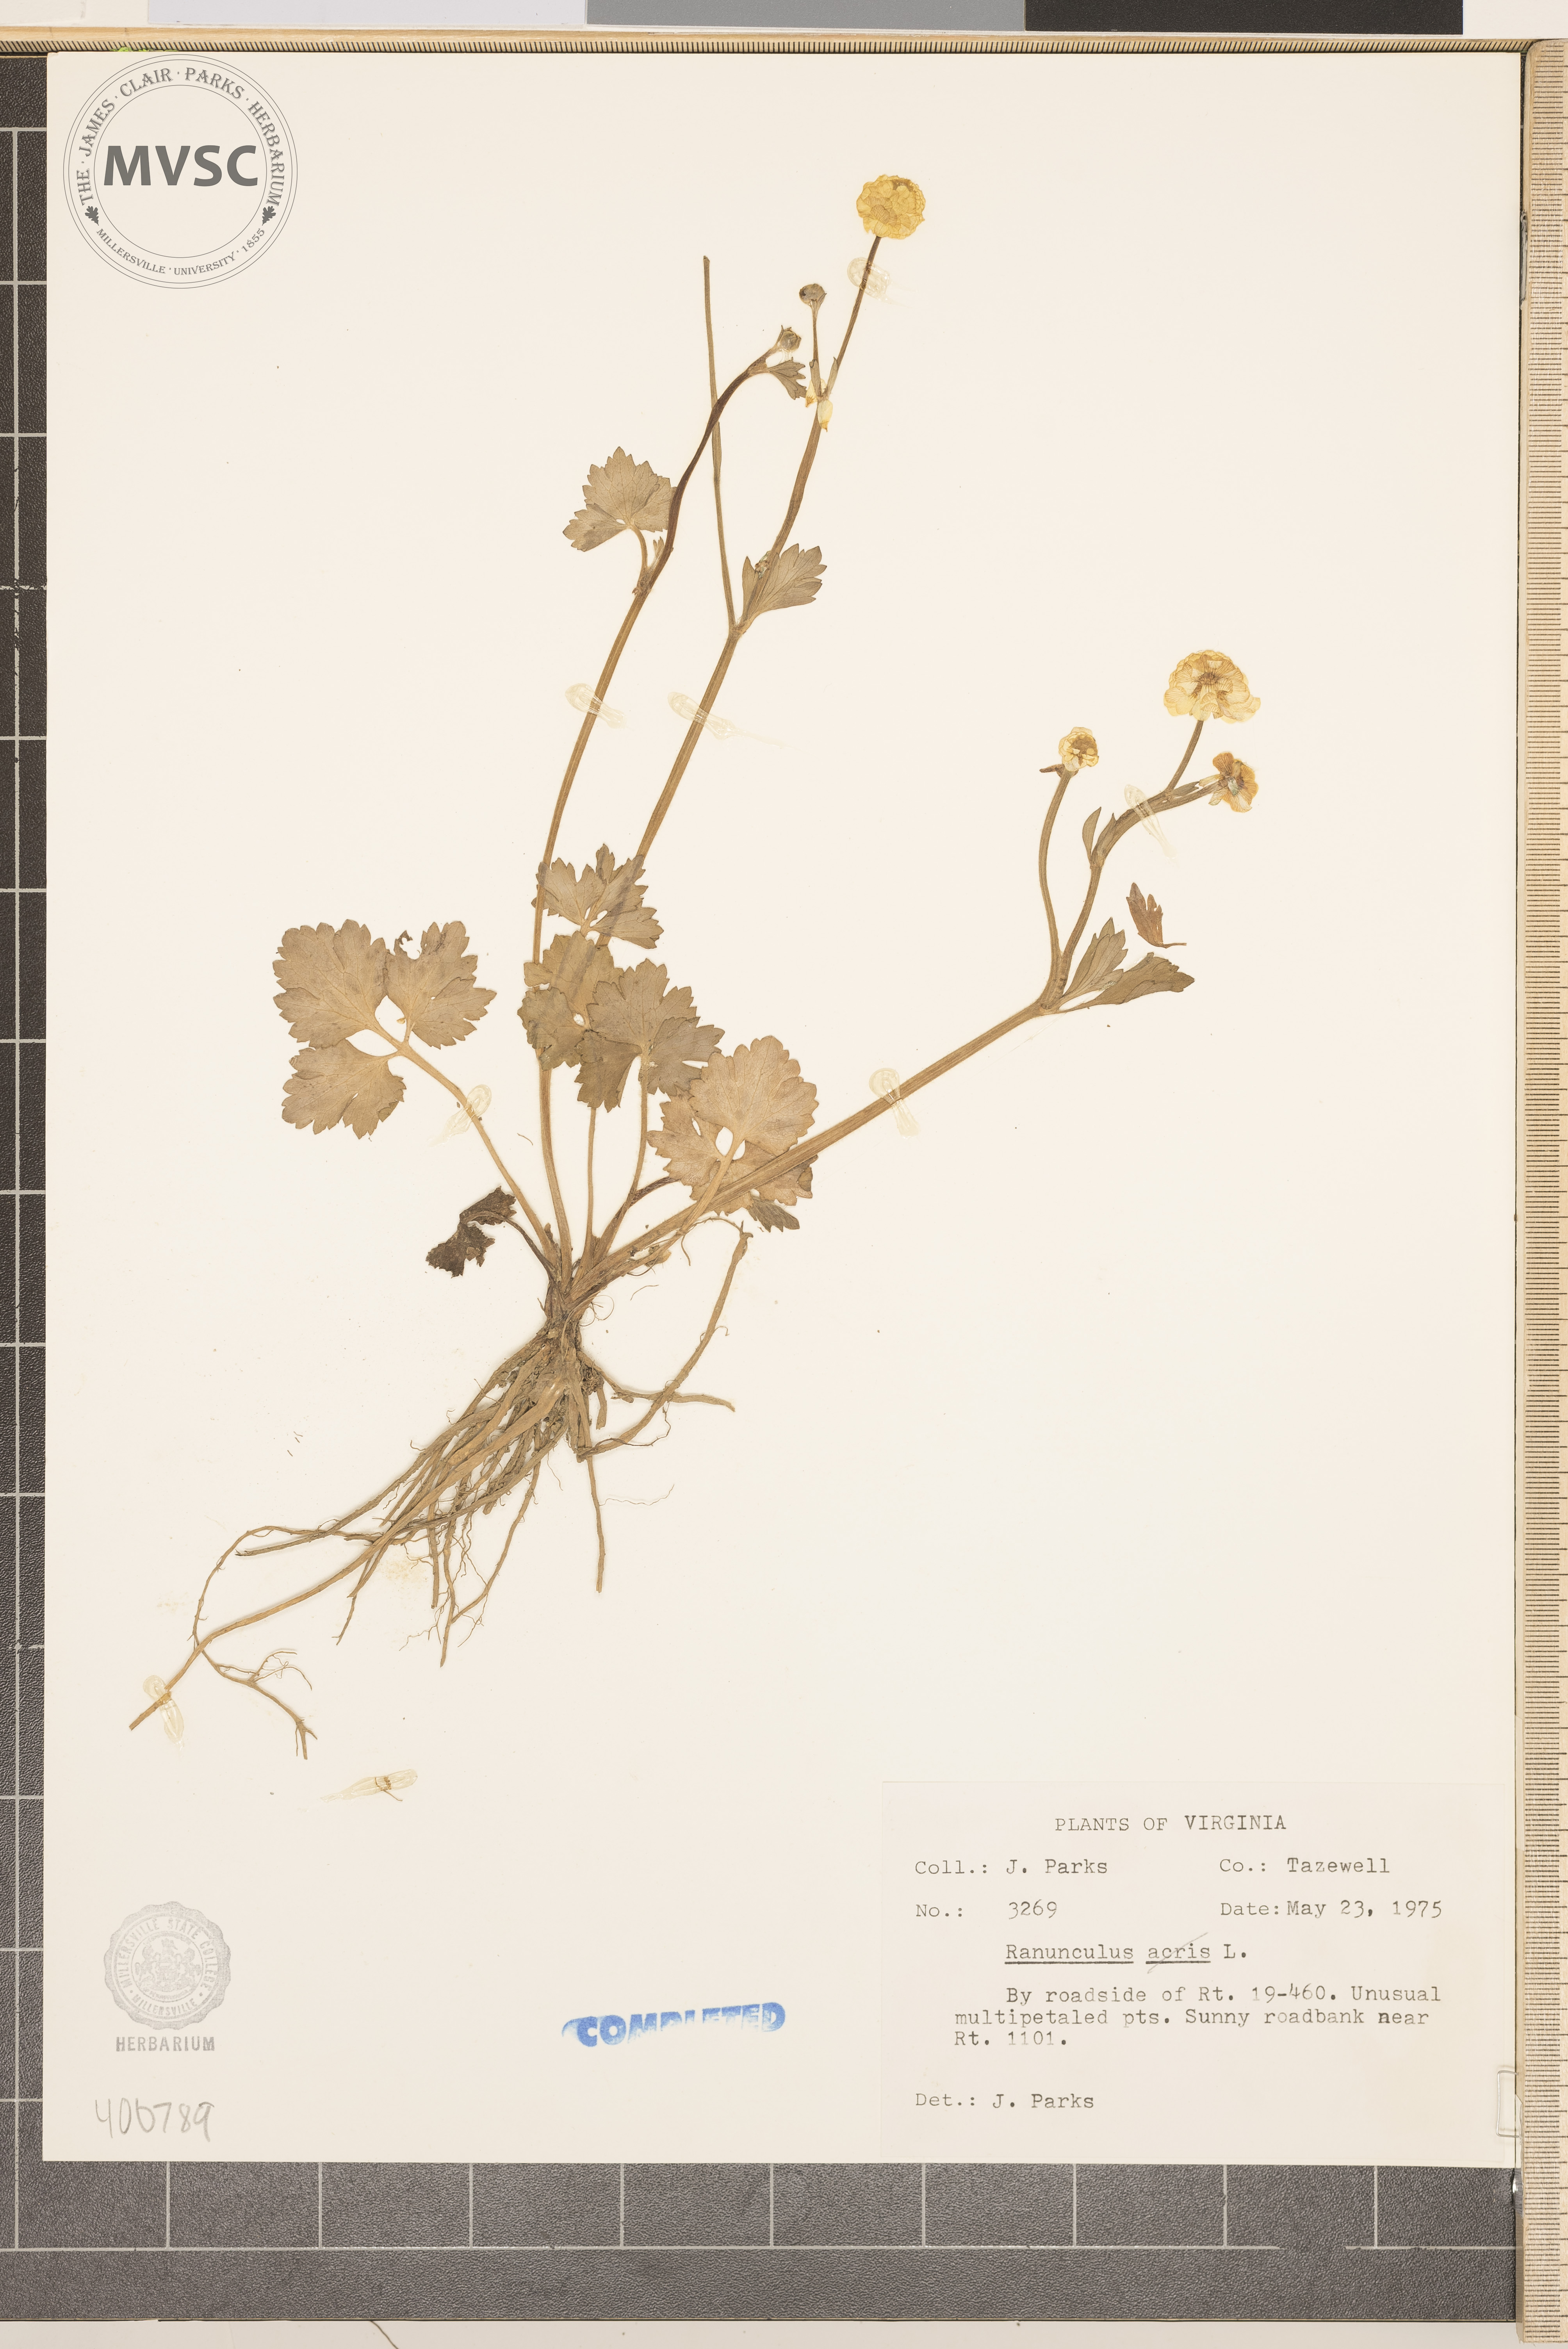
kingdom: Plantae
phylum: Tracheophyta
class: Magnoliopsida
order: Ranunculales
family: Ranunculaceae
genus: Ranunculus
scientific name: Ranunculus acris
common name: buttercup
